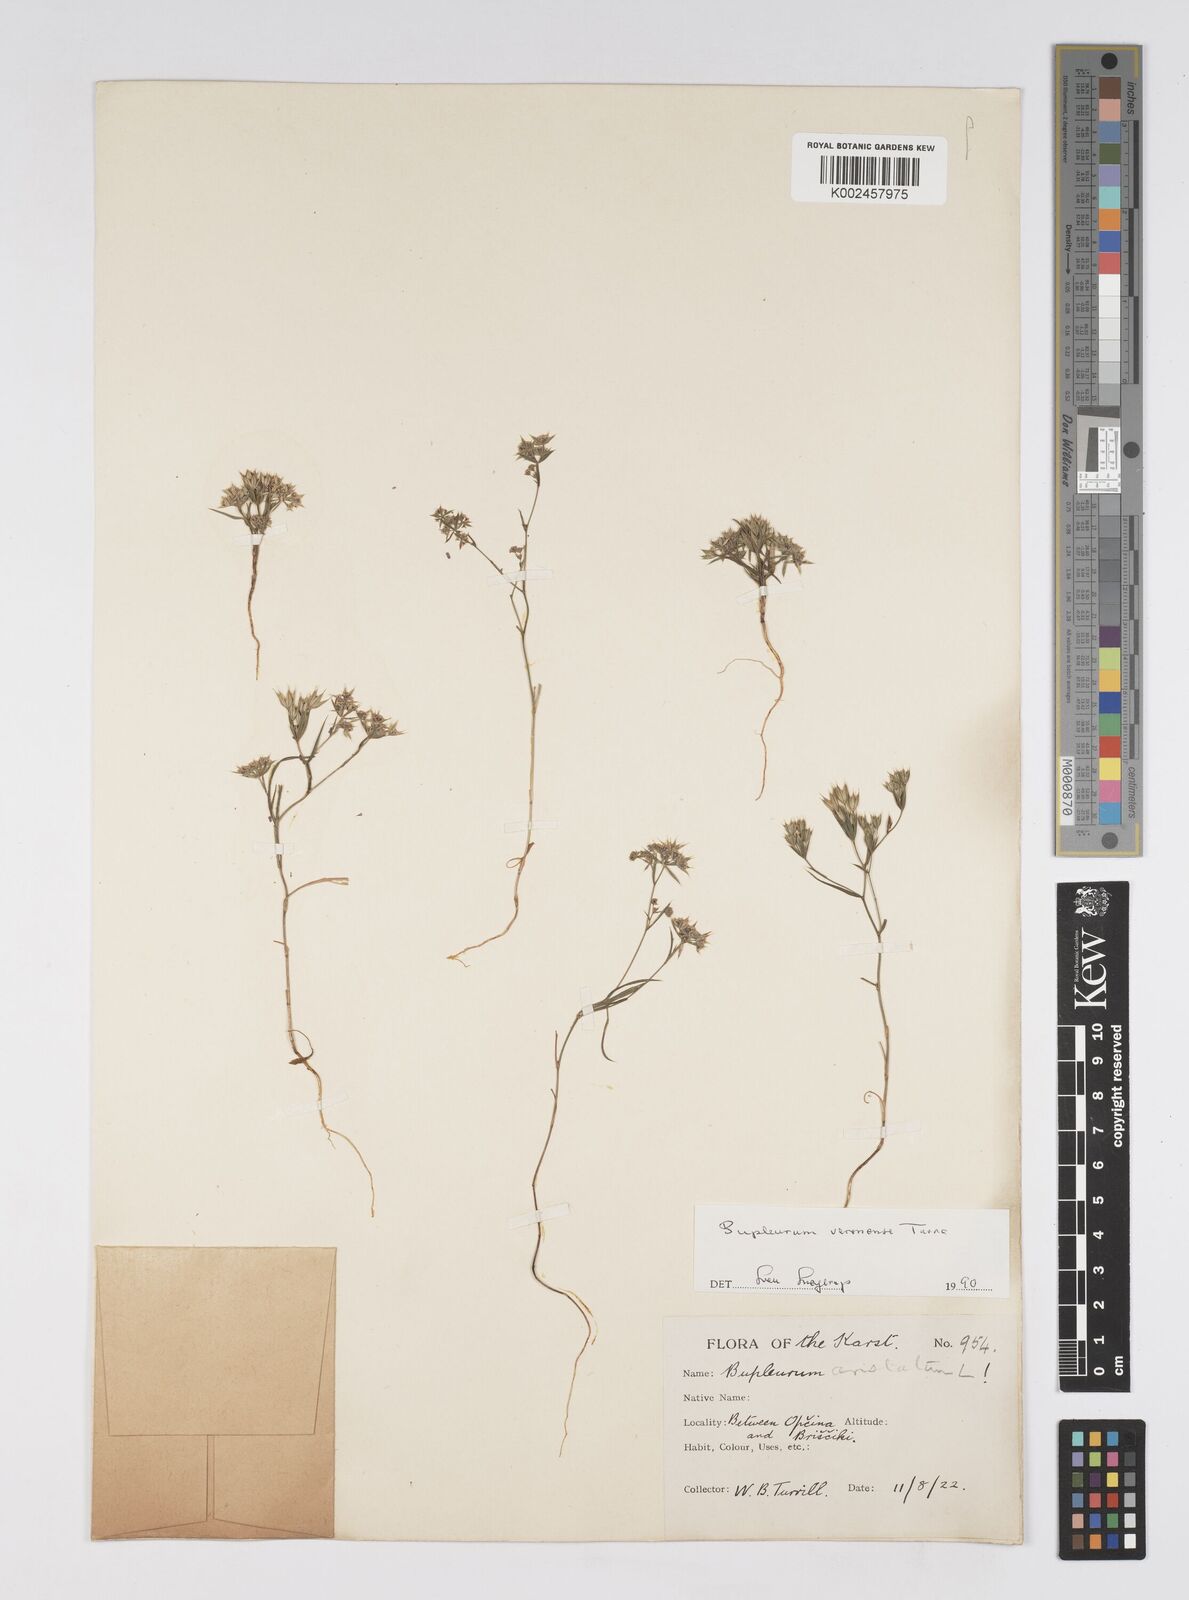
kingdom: Plantae
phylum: Tracheophyta
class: Magnoliopsida
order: Apiales
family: Apiaceae
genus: Bupleurum
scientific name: Bupleurum glumaceum
